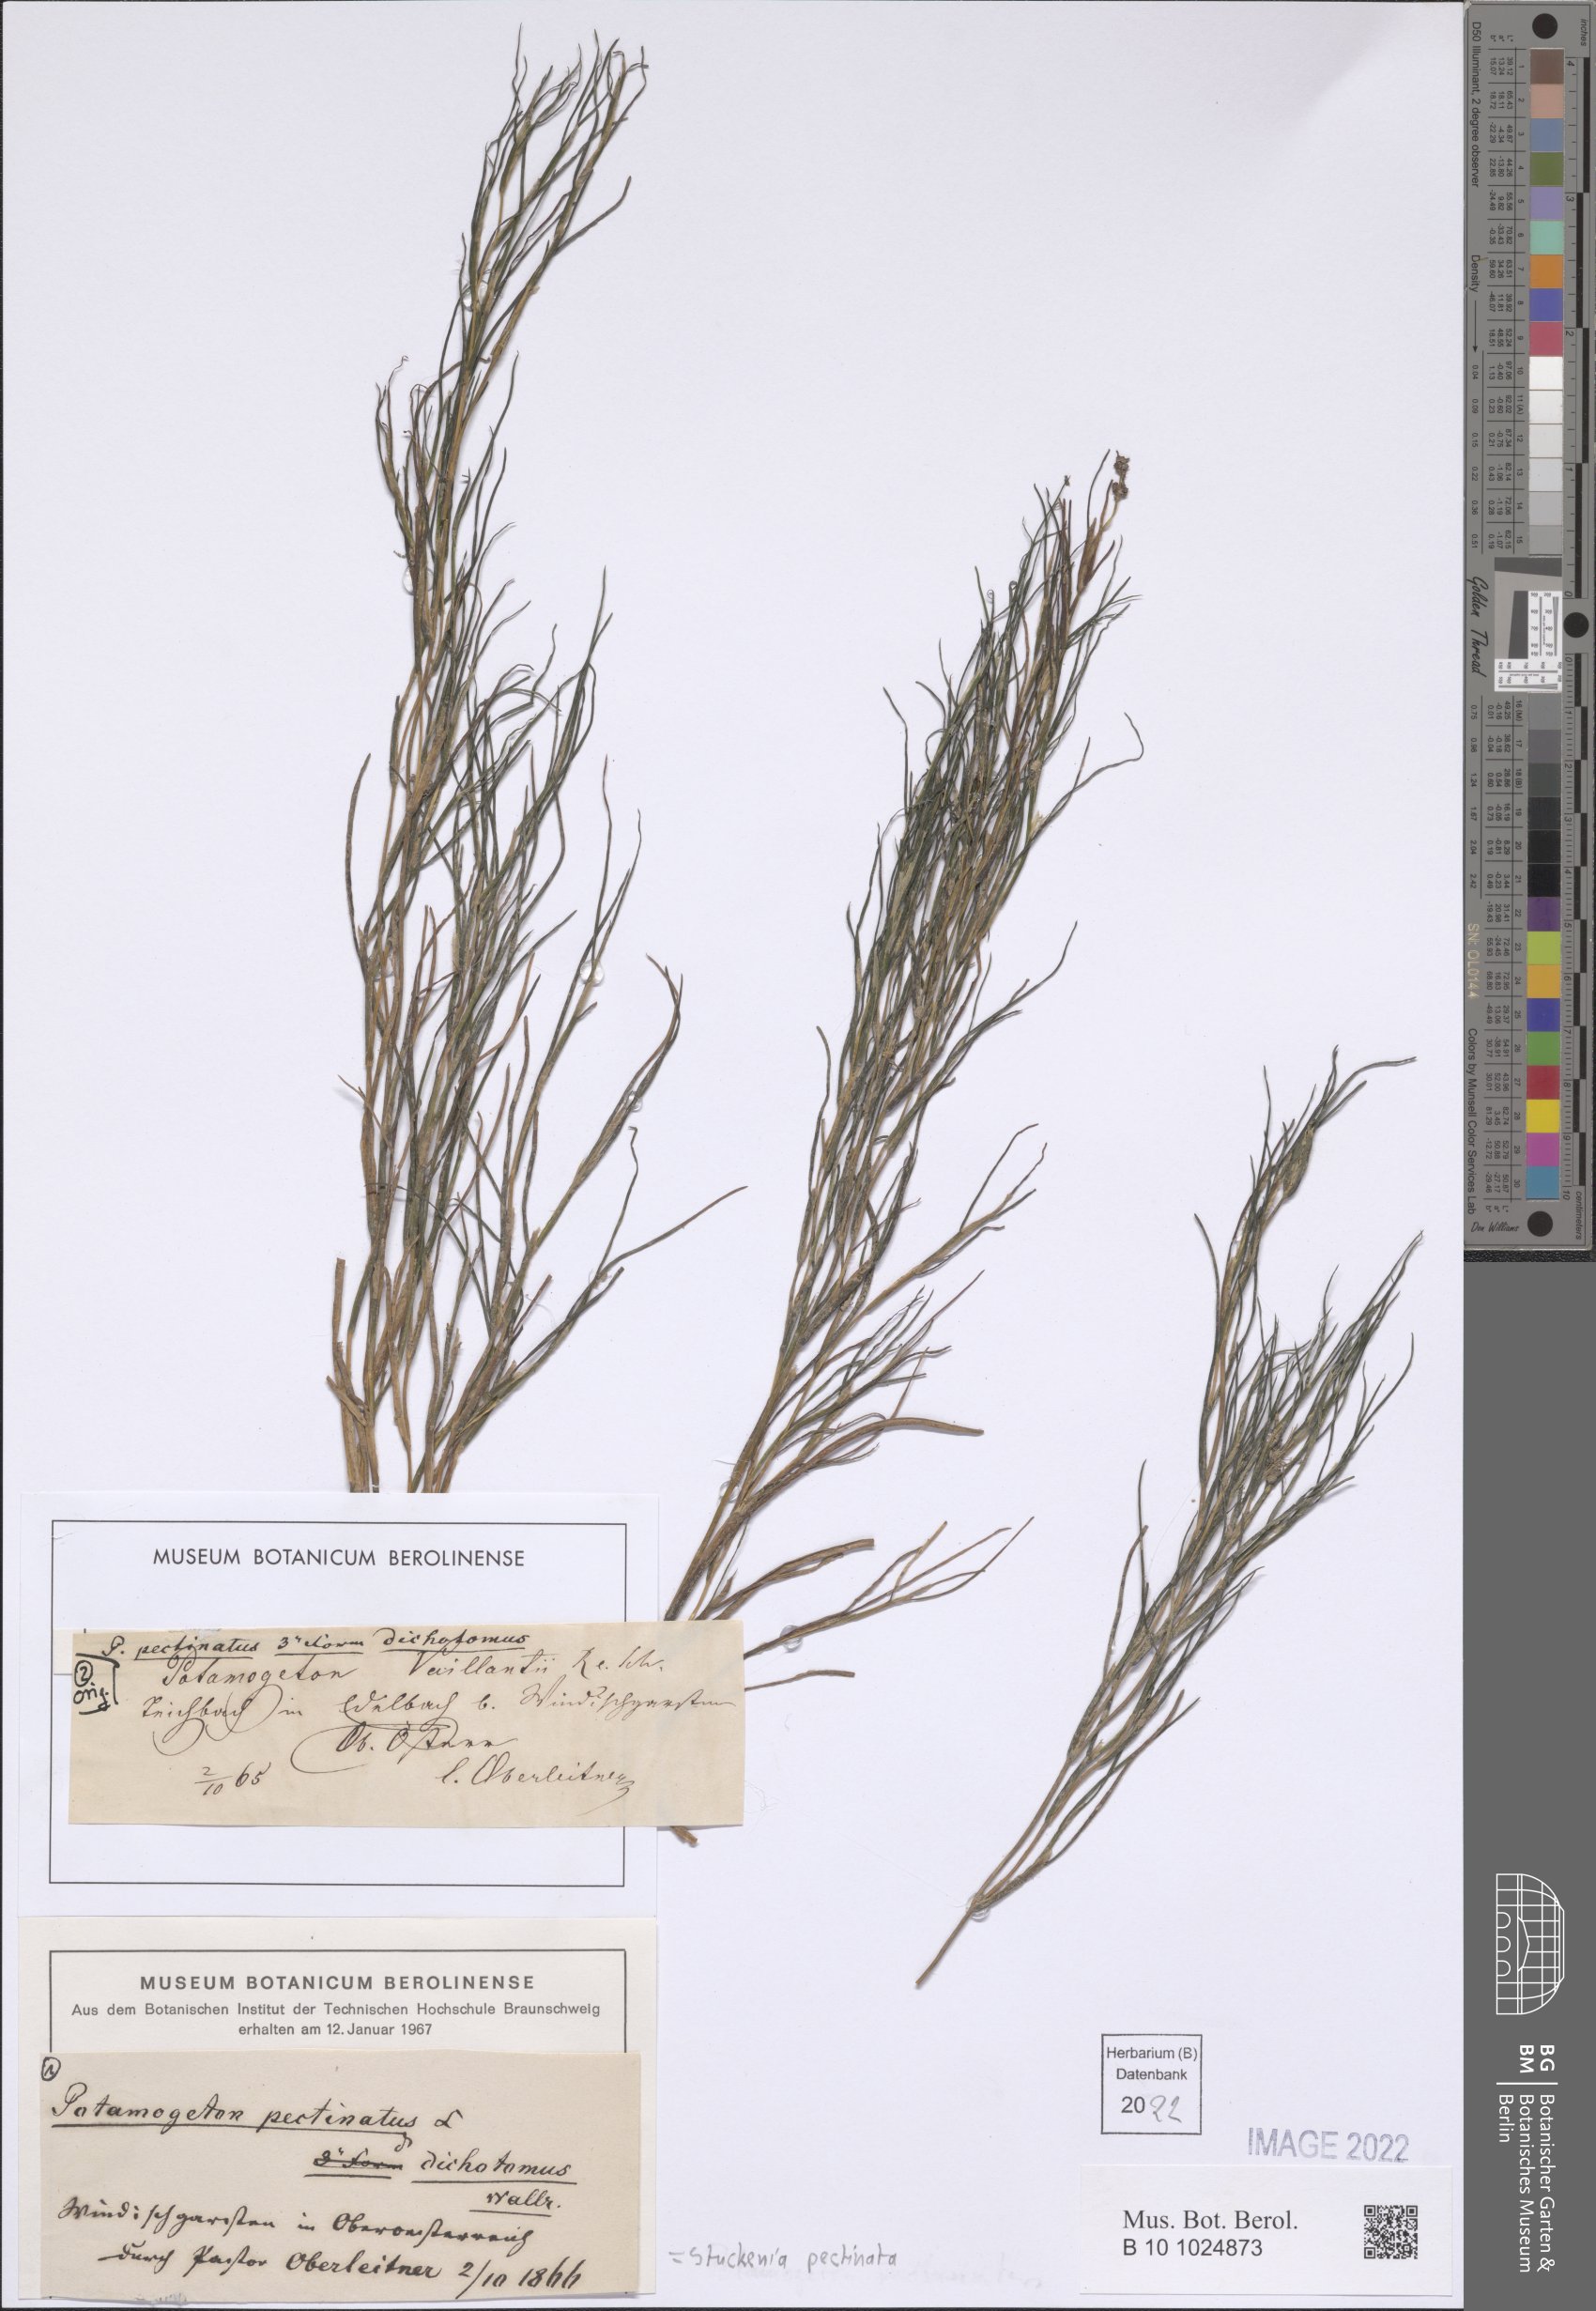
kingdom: Plantae
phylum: Tracheophyta
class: Liliopsida
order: Alismatales
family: Potamogetonaceae
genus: Stuckenia
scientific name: Stuckenia pectinata
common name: Sago pondweed
